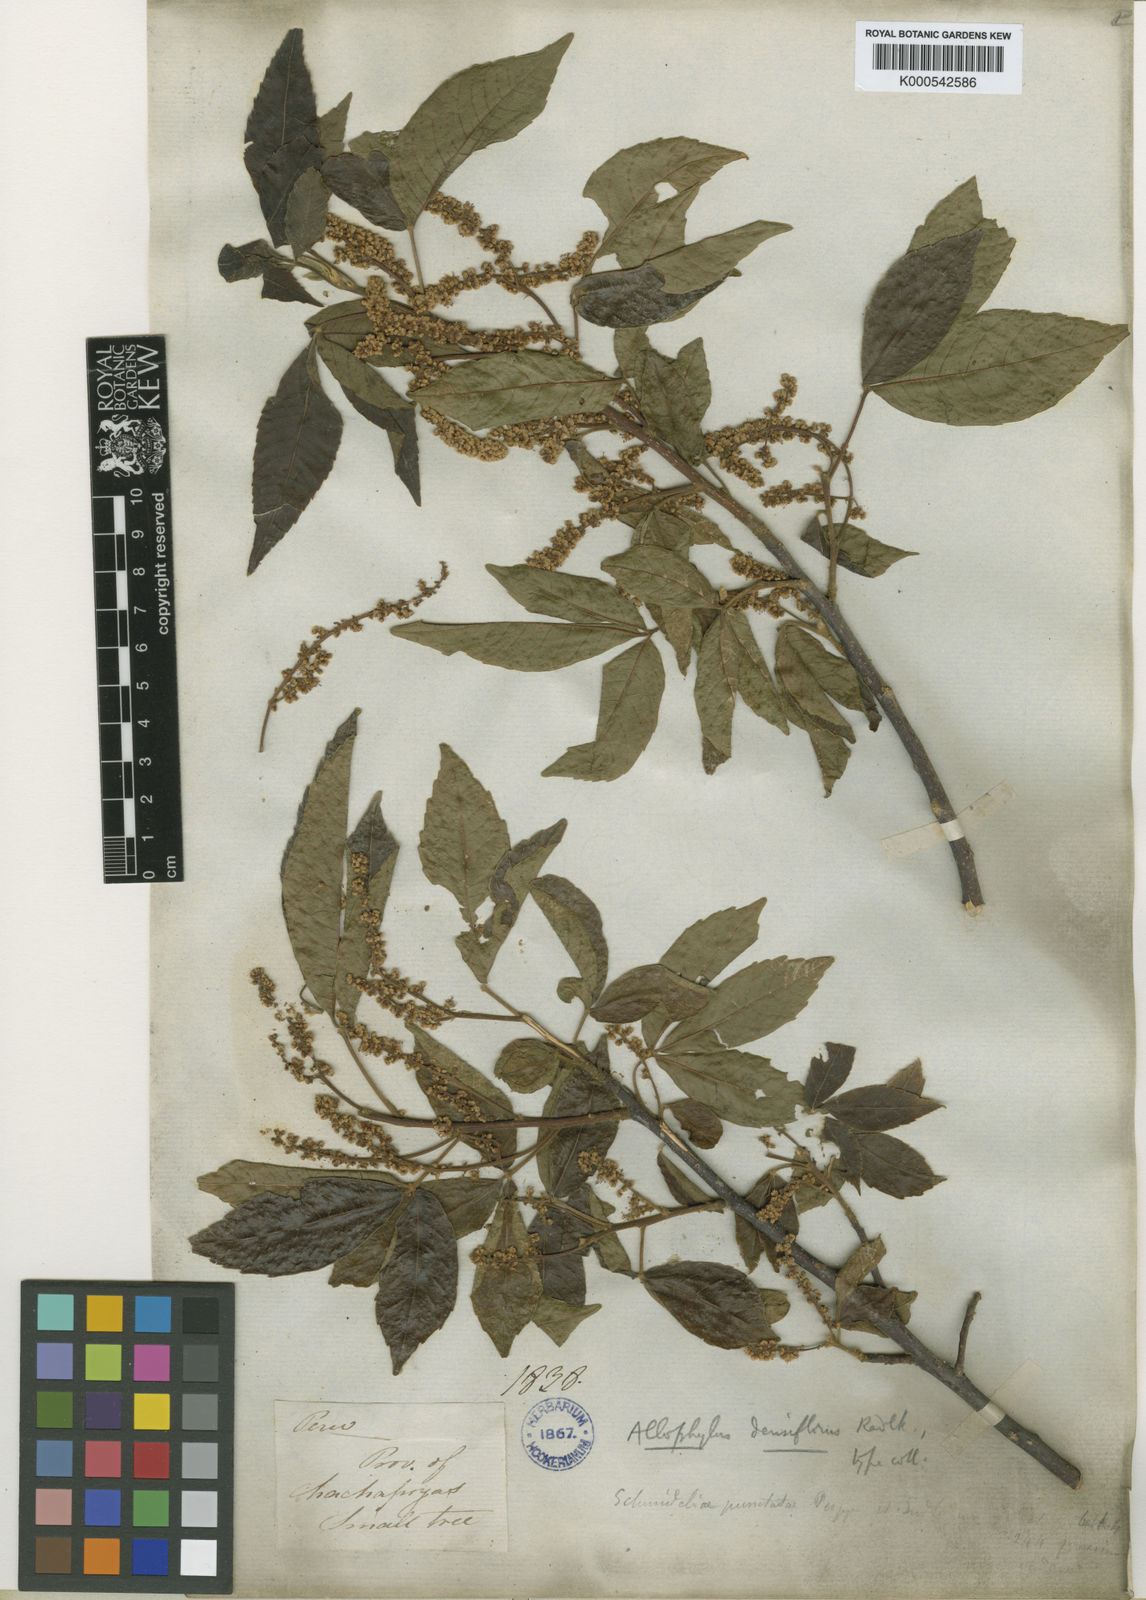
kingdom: Plantae
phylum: Tracheophyta
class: Magnoliopsida
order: Sapindales
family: Sapindaceae
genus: Allophylus
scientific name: Allophylus densiflorus
